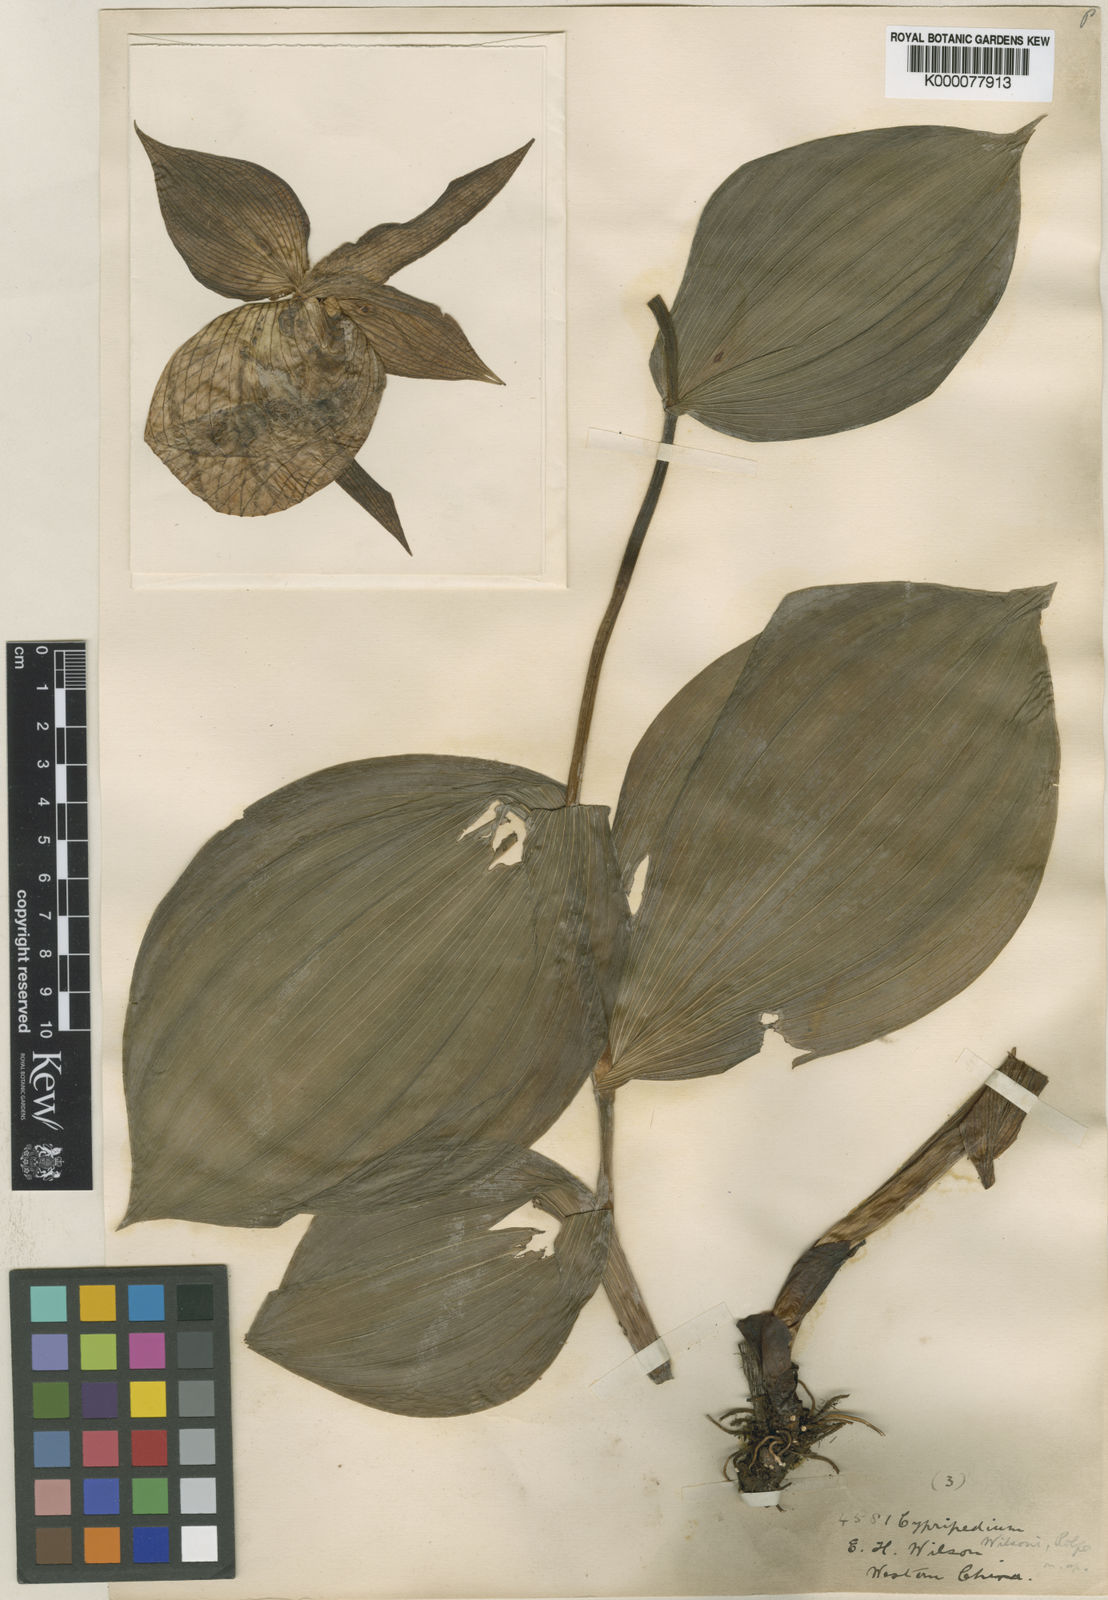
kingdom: Plantae
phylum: Tracheophyta
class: Liliopsida
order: Asparagales
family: Orchidaceae
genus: Cypripedium
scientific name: Cypripedium fasciolatum
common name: Striped lady slipper
